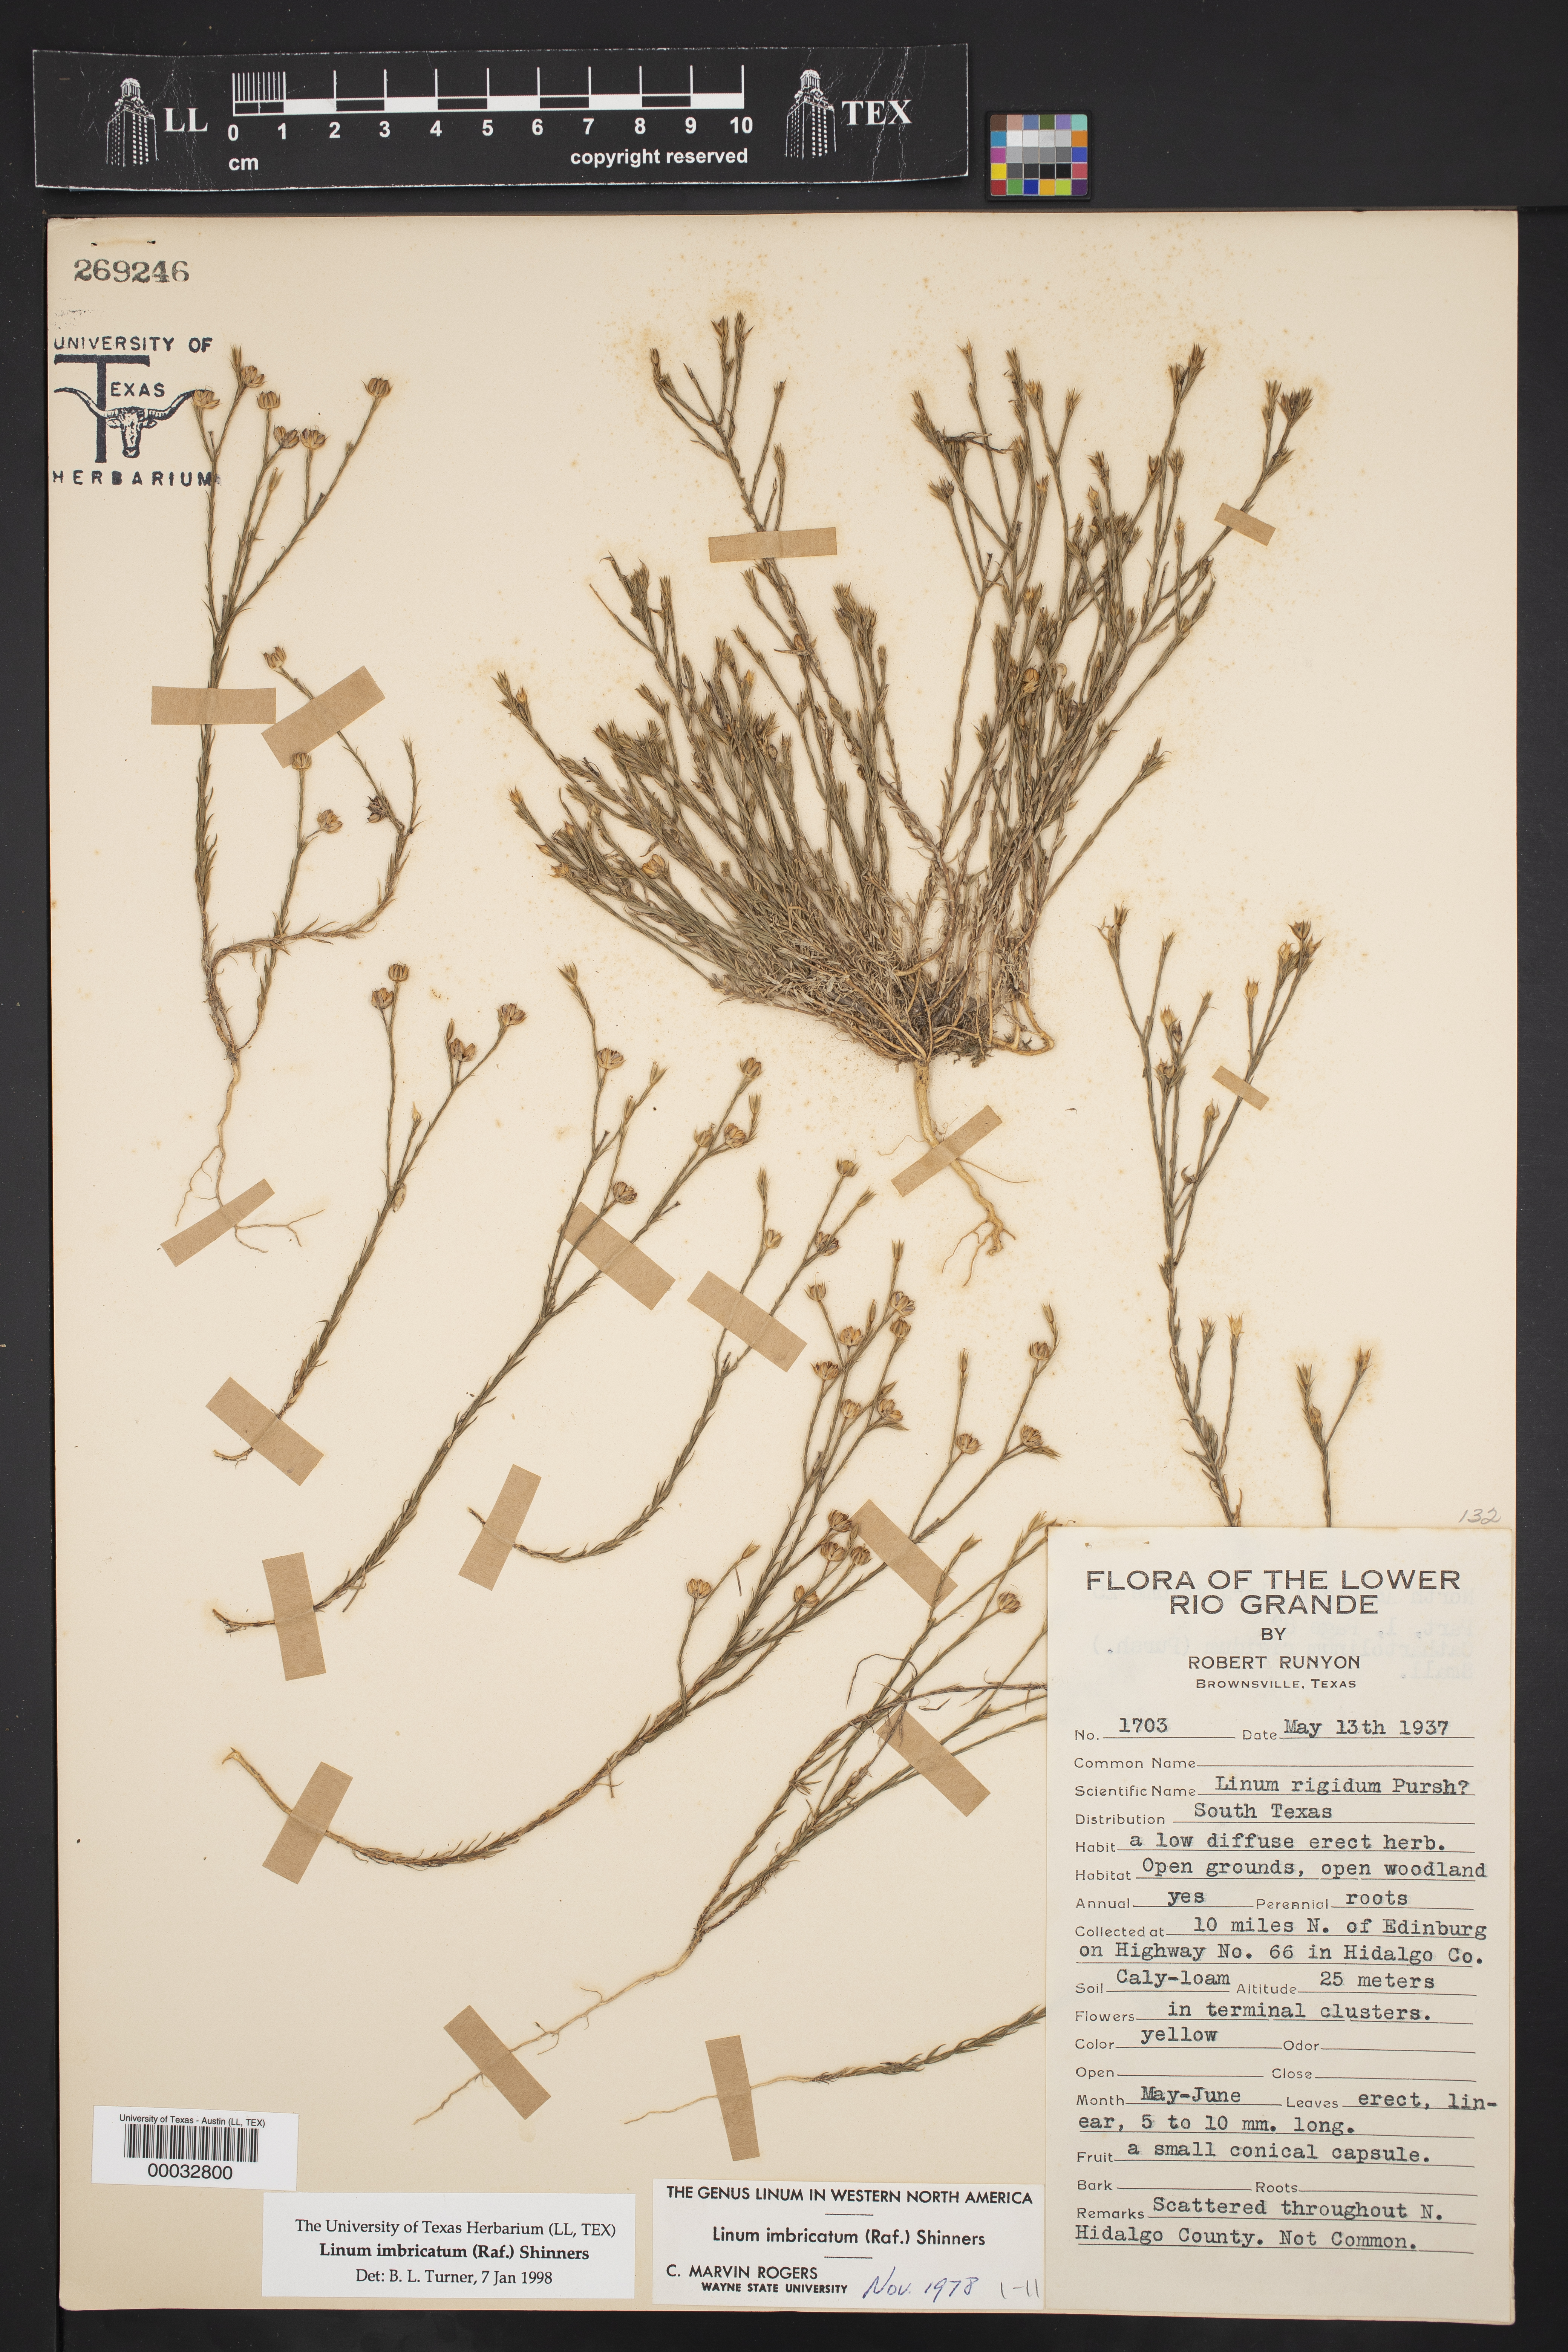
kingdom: Plantae
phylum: Tracheophyta
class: Magnoliopsida
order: Malpighiales
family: Linaceae
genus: Linum
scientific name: Linum imbricatum
